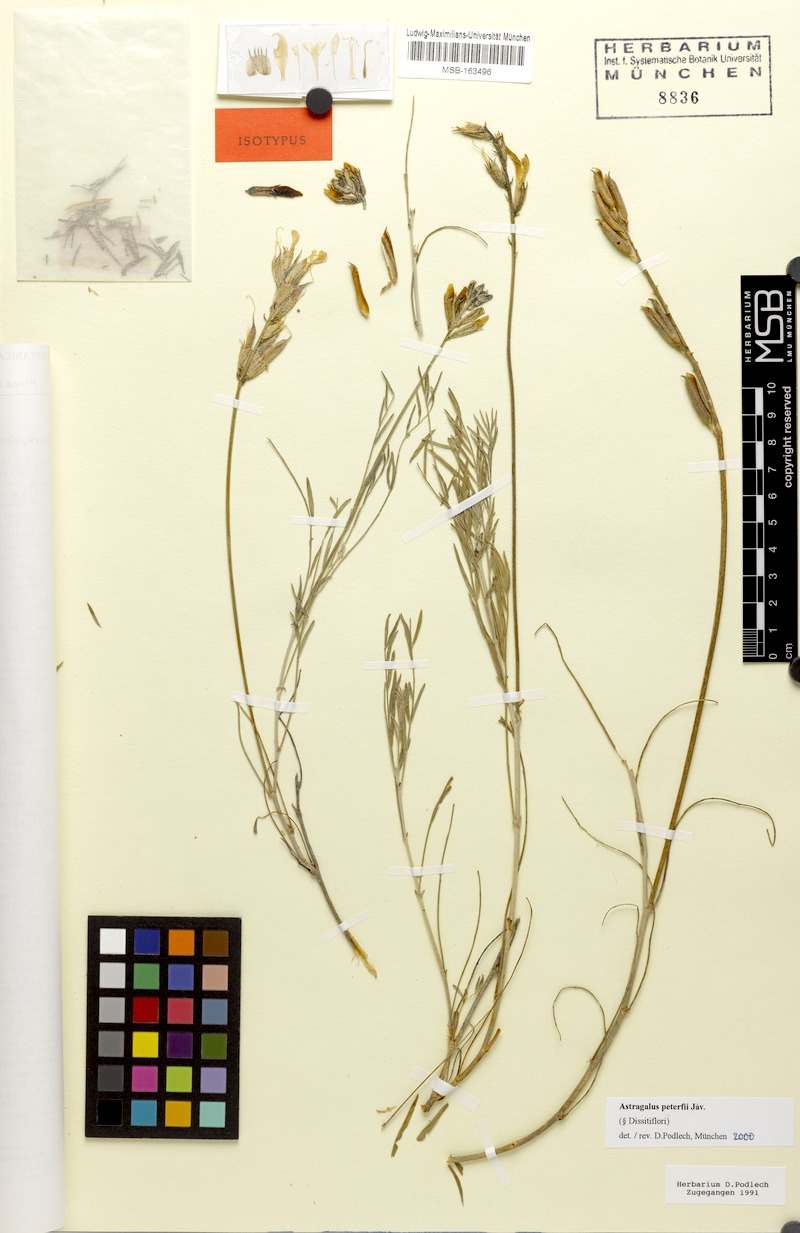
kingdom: Plantae
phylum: Tracheophyta
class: Magnoliopsida
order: Fabales
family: Fabaceae
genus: Astragalus
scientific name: Astragalus peterfii
